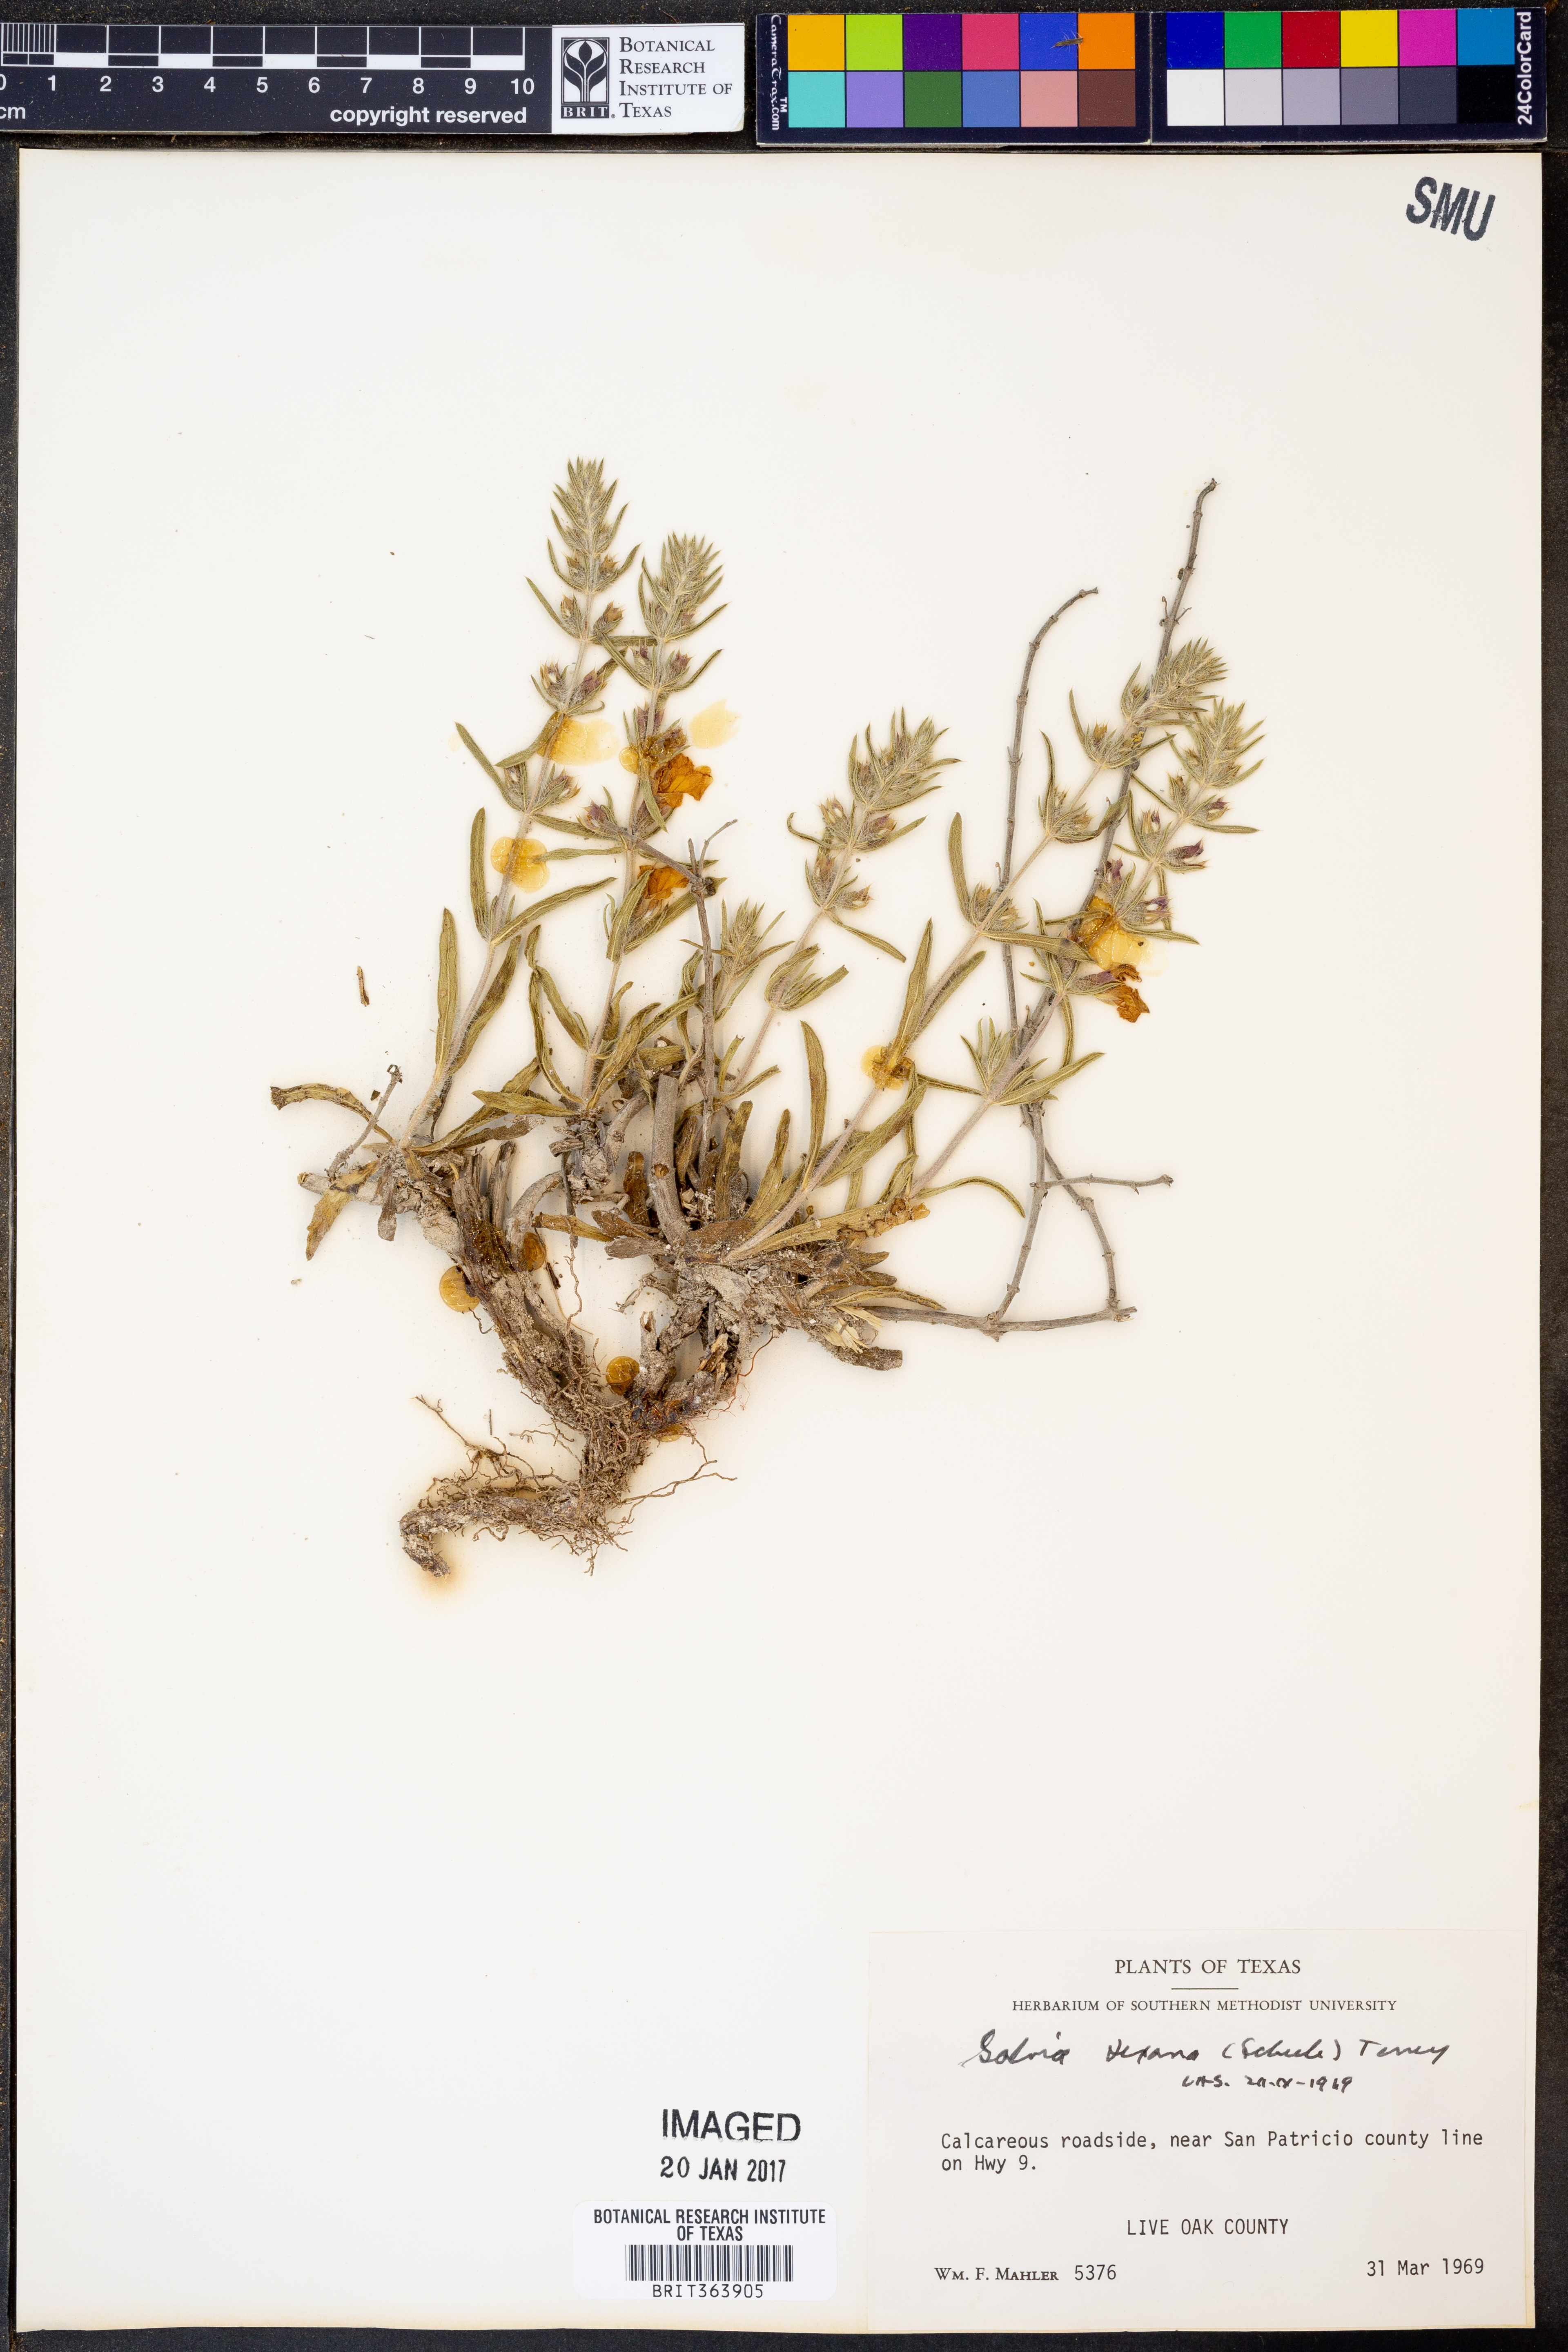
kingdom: Plantae
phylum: Tracheophyta
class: Magnoliopsida
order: Lamiales
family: Lamiaceae
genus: Salvia
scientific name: Salvia texana
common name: Texas sage
